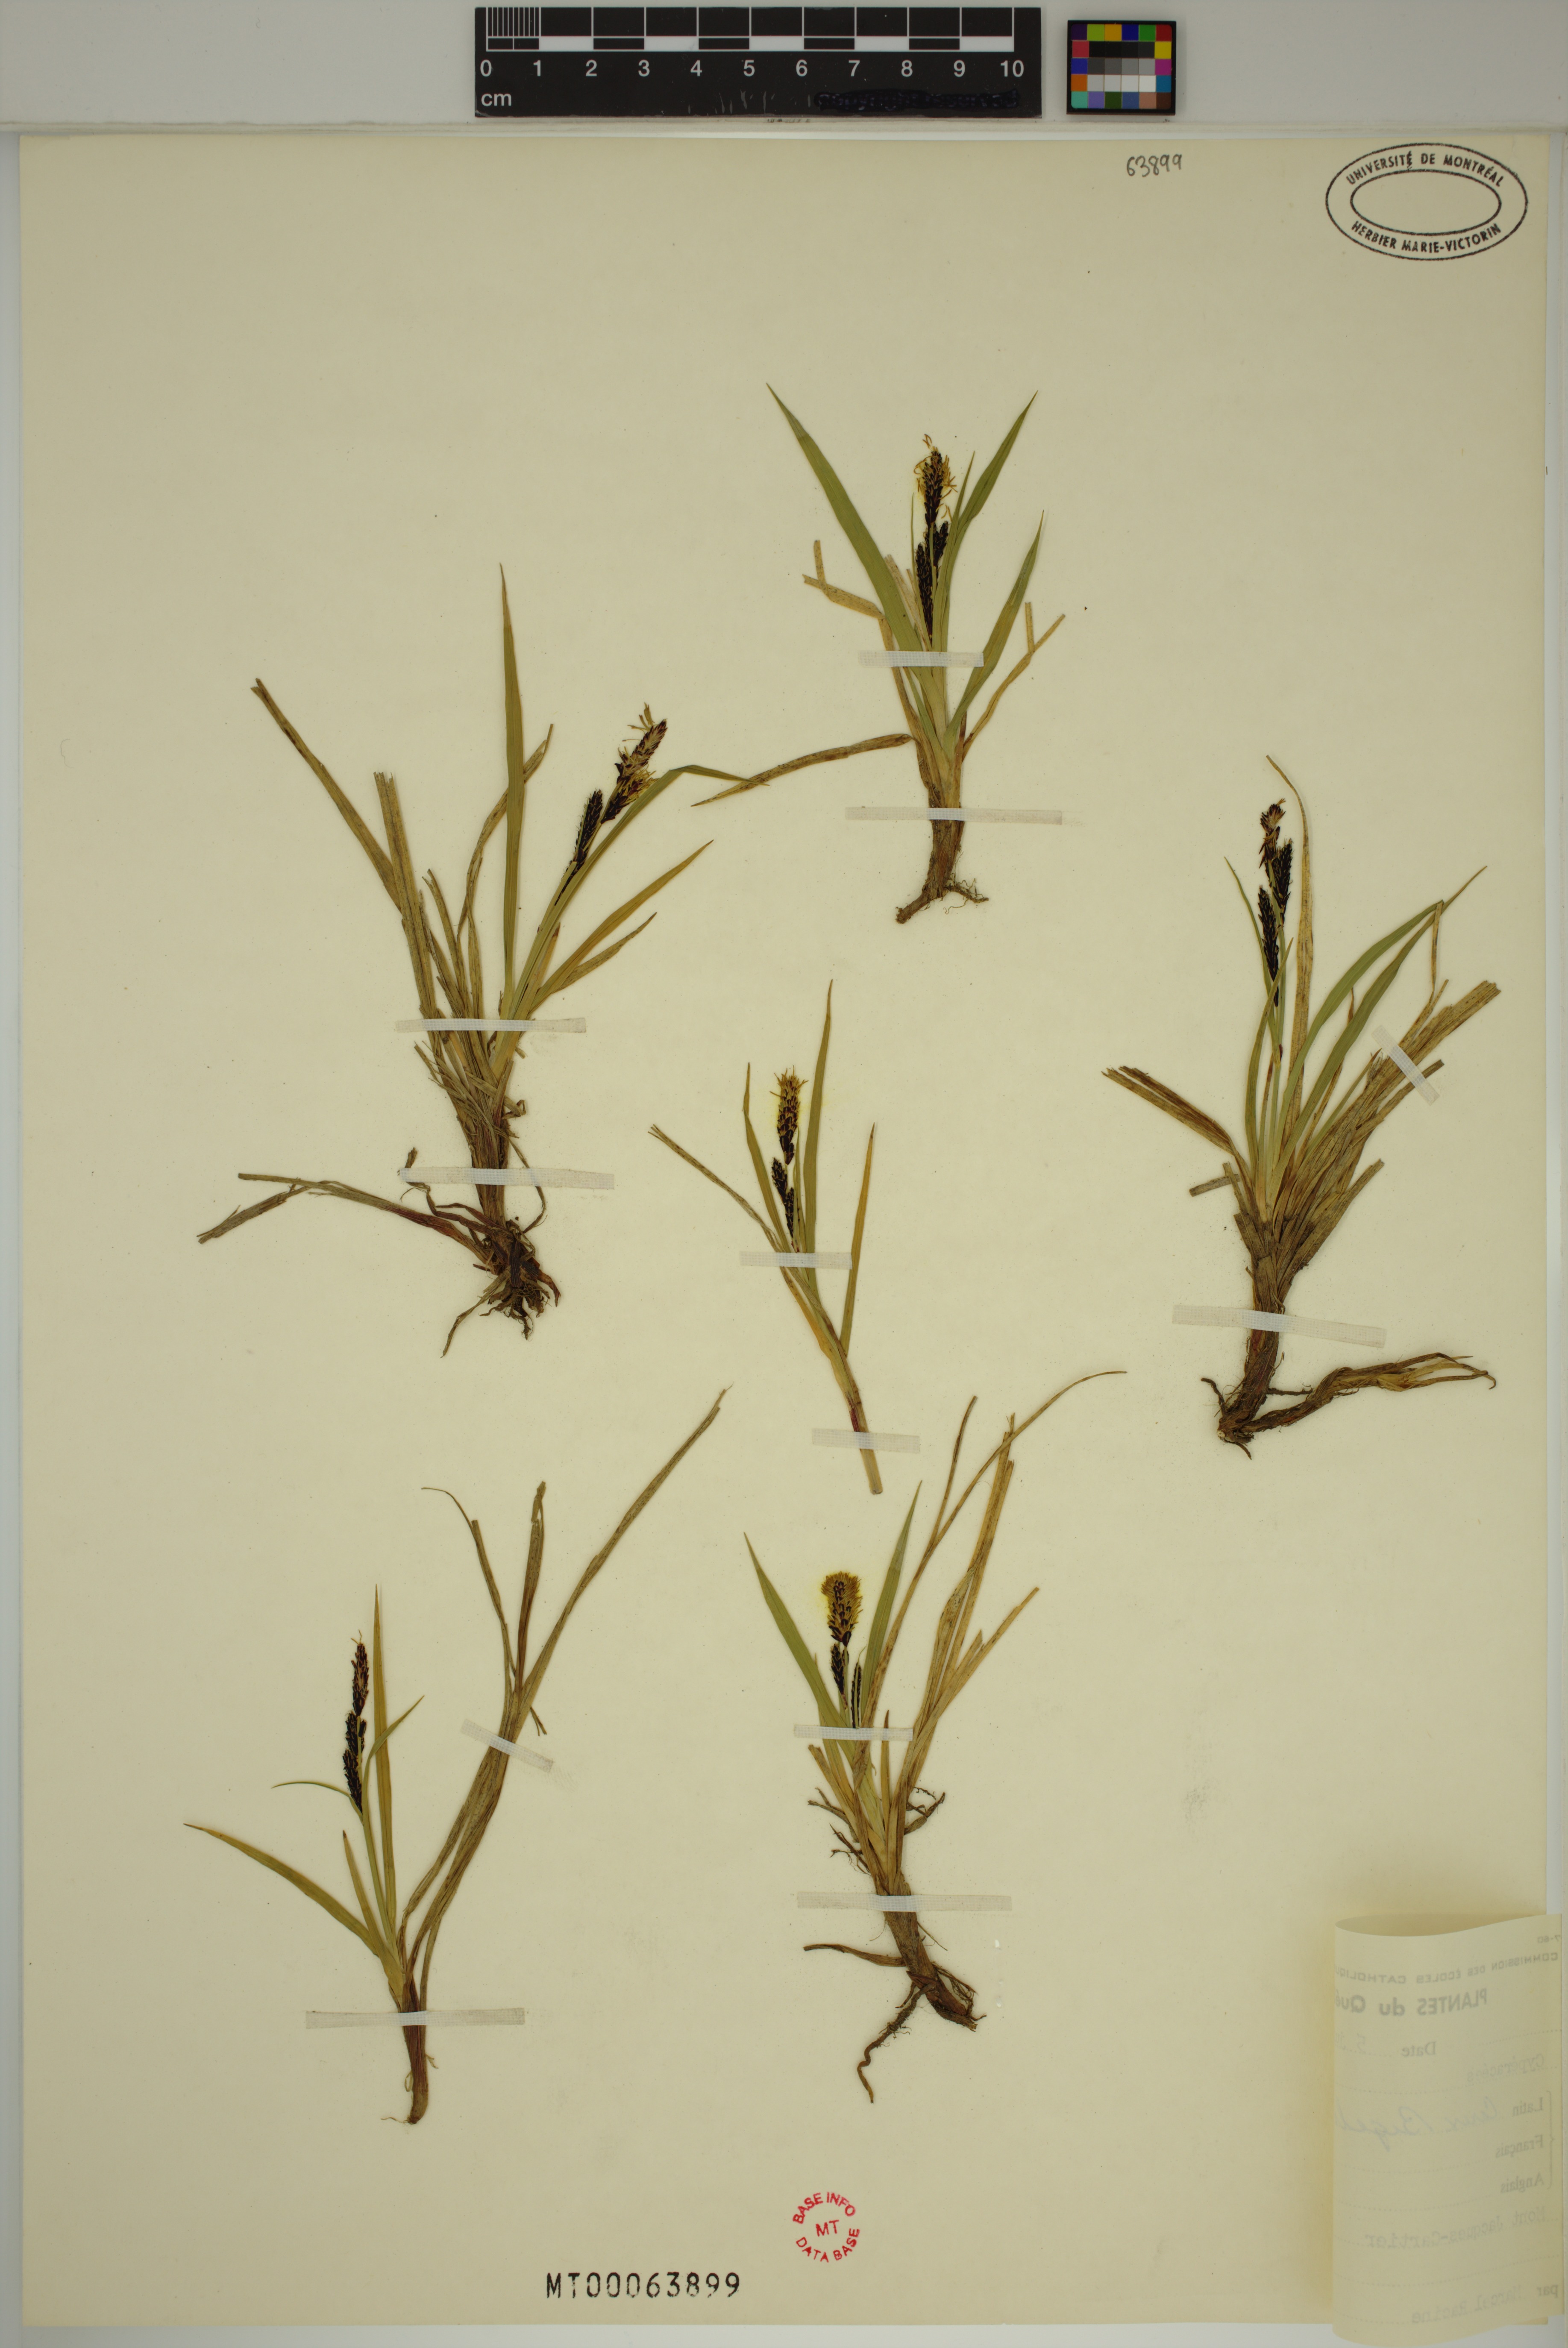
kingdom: Plantae
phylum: Tracheophyta
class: Liliopsida
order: Poales
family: Cyperaceae
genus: Carex
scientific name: Carex bigelowii
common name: Stiff sedge
